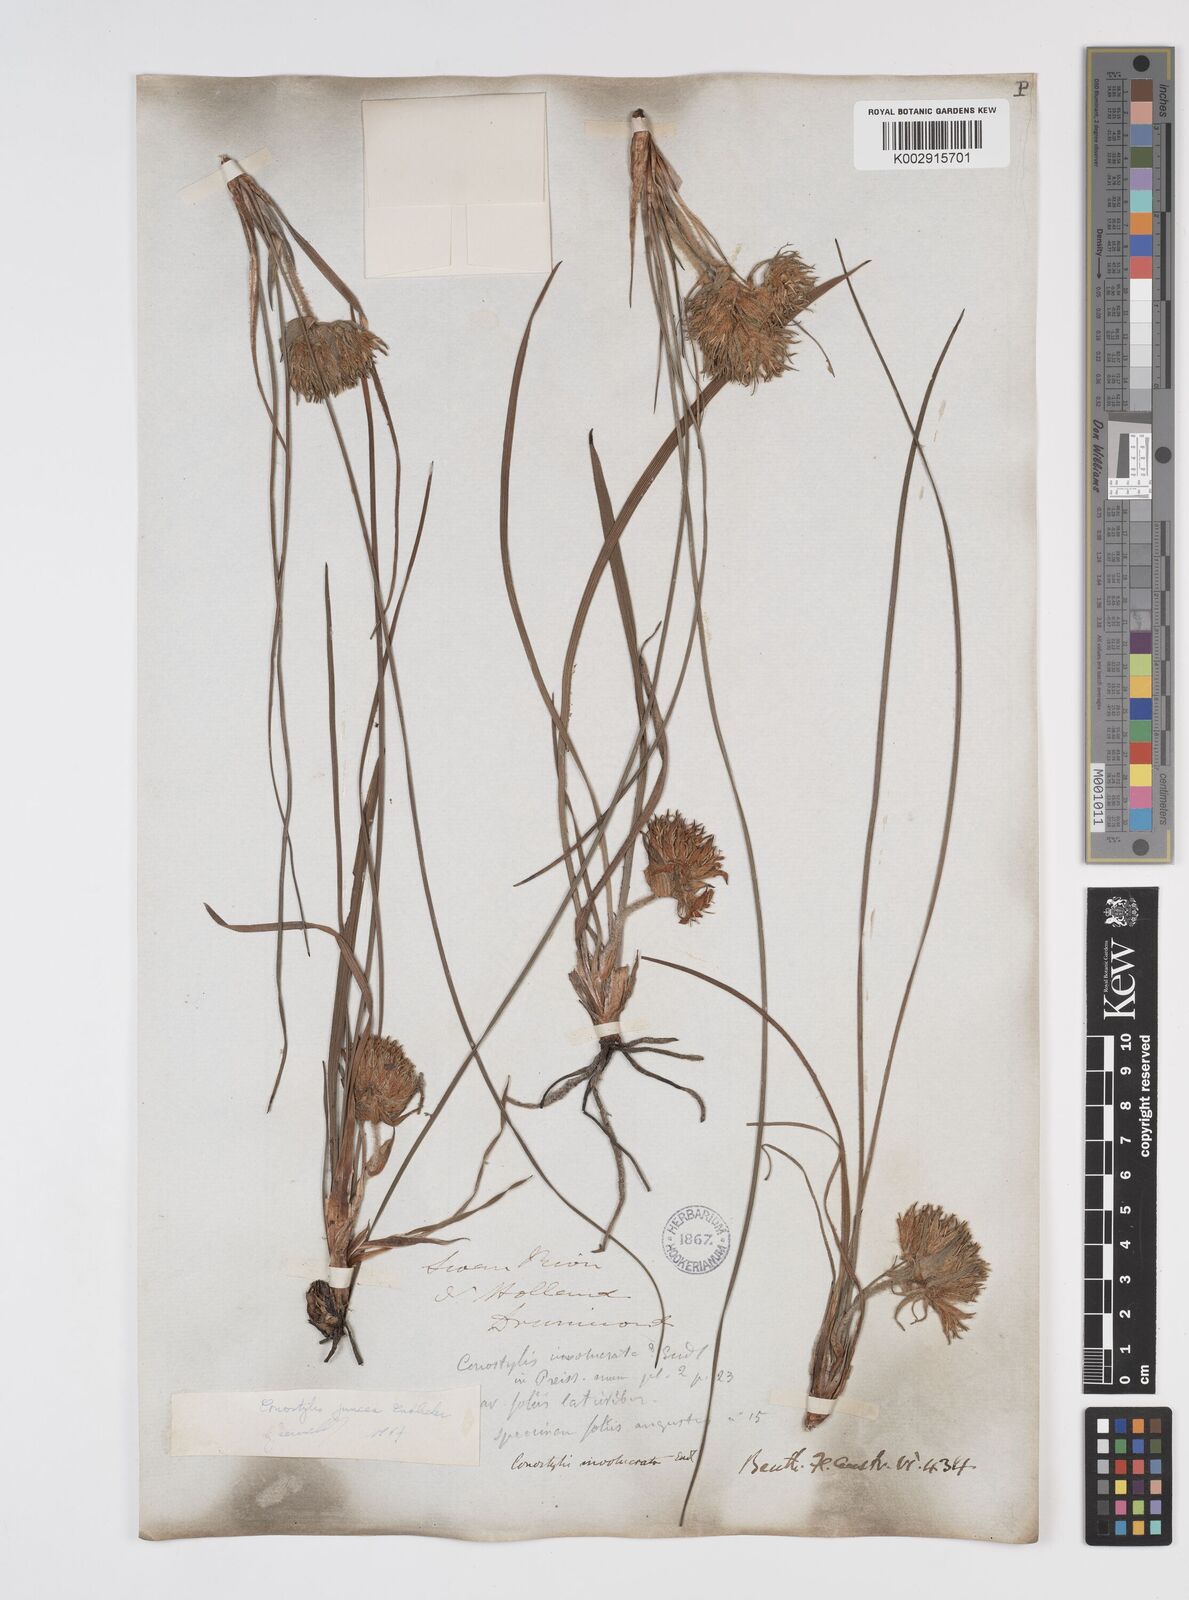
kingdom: Plantae
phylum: Tracheophyta
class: Liliopsida
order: Commelinales
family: Haemodoraceae
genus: Conostylis
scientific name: Conostylis juncea
